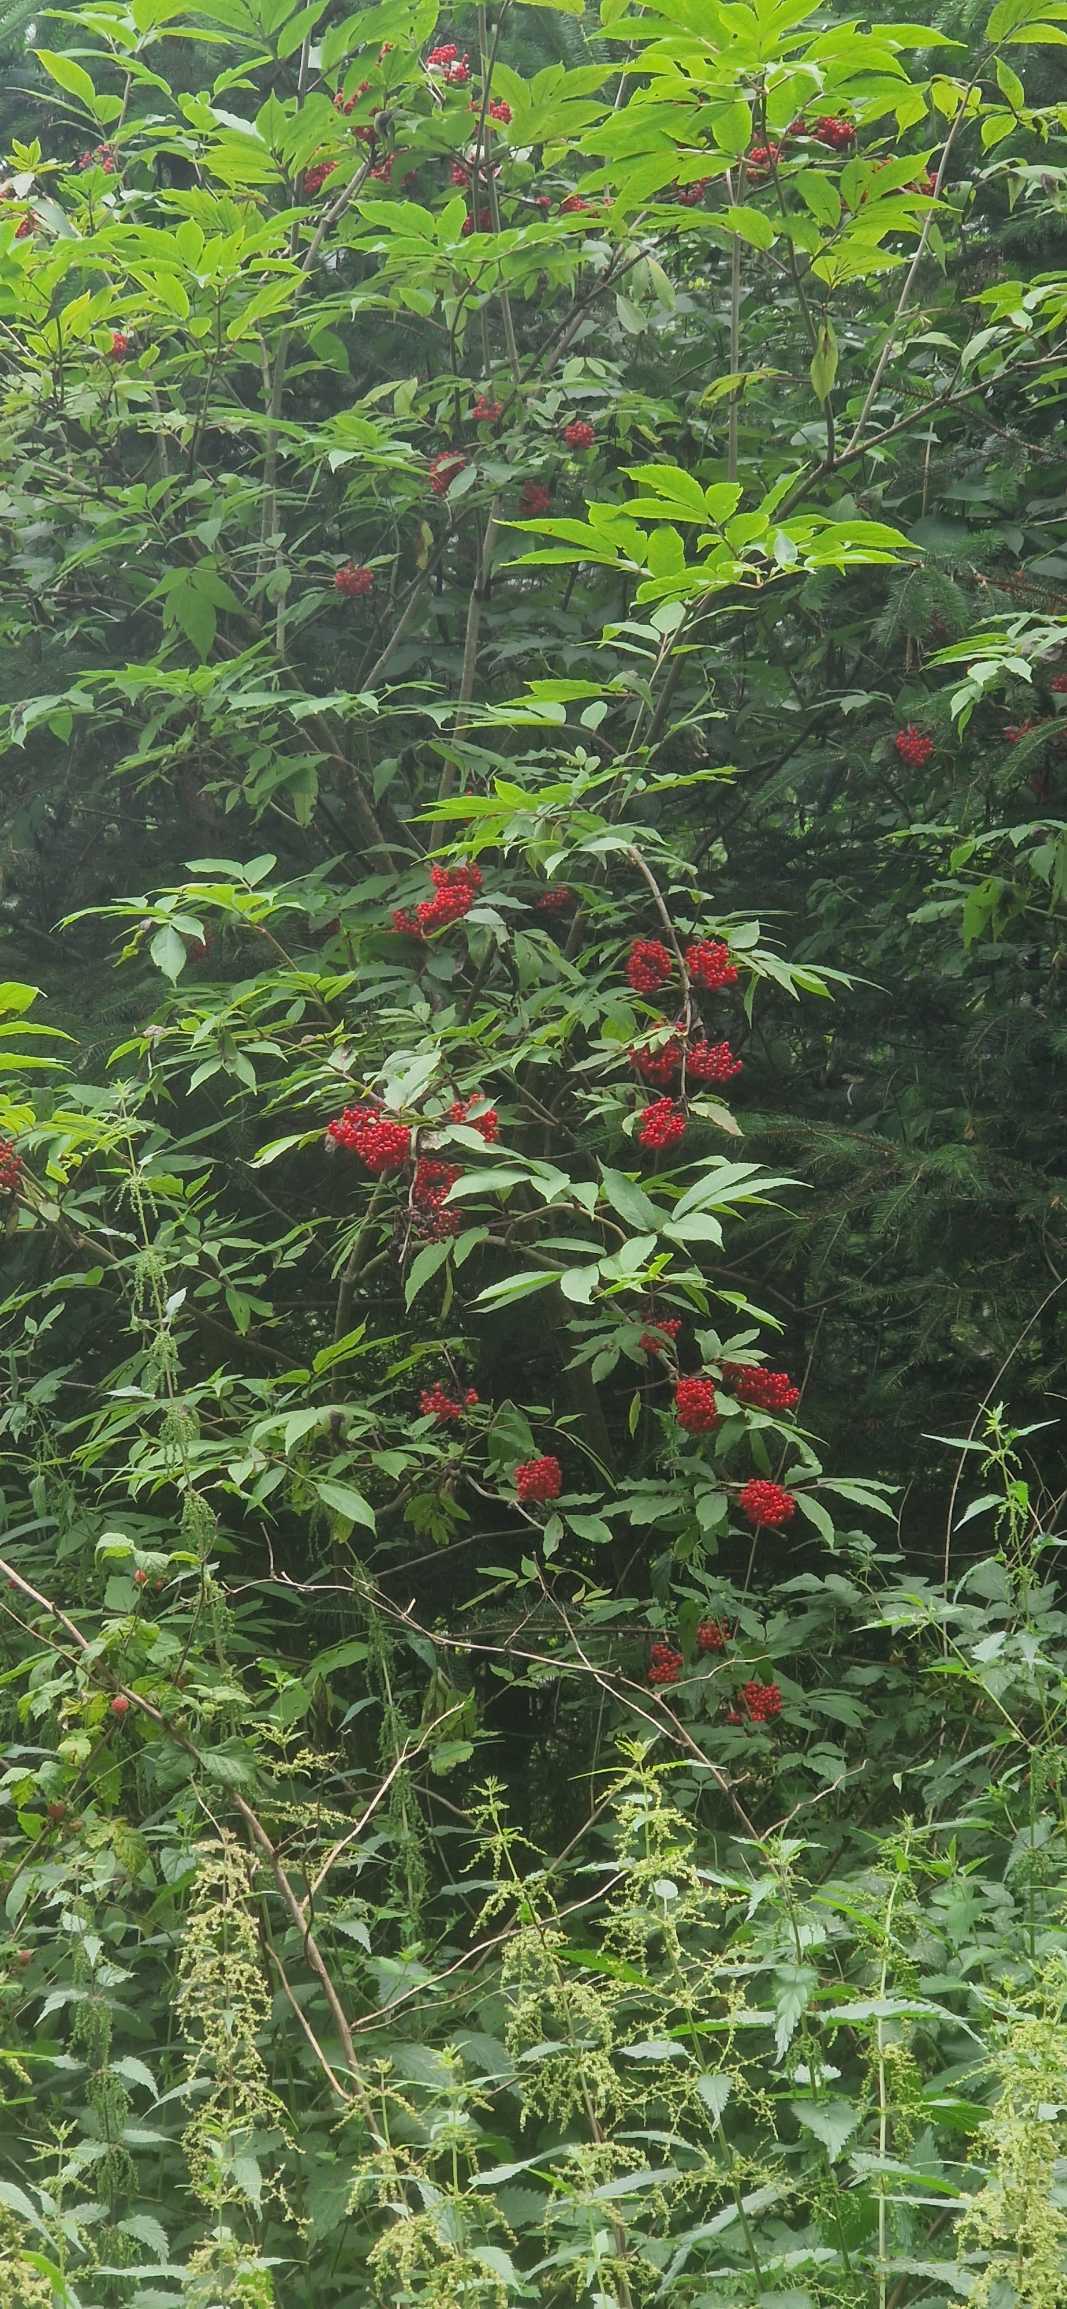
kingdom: Plantae
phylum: Tracheophyta
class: Magnoliopsida
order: Dipsacales
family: Viburnaceae
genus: Sambucus
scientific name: Sambucus racemosa
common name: Drue-hyld
